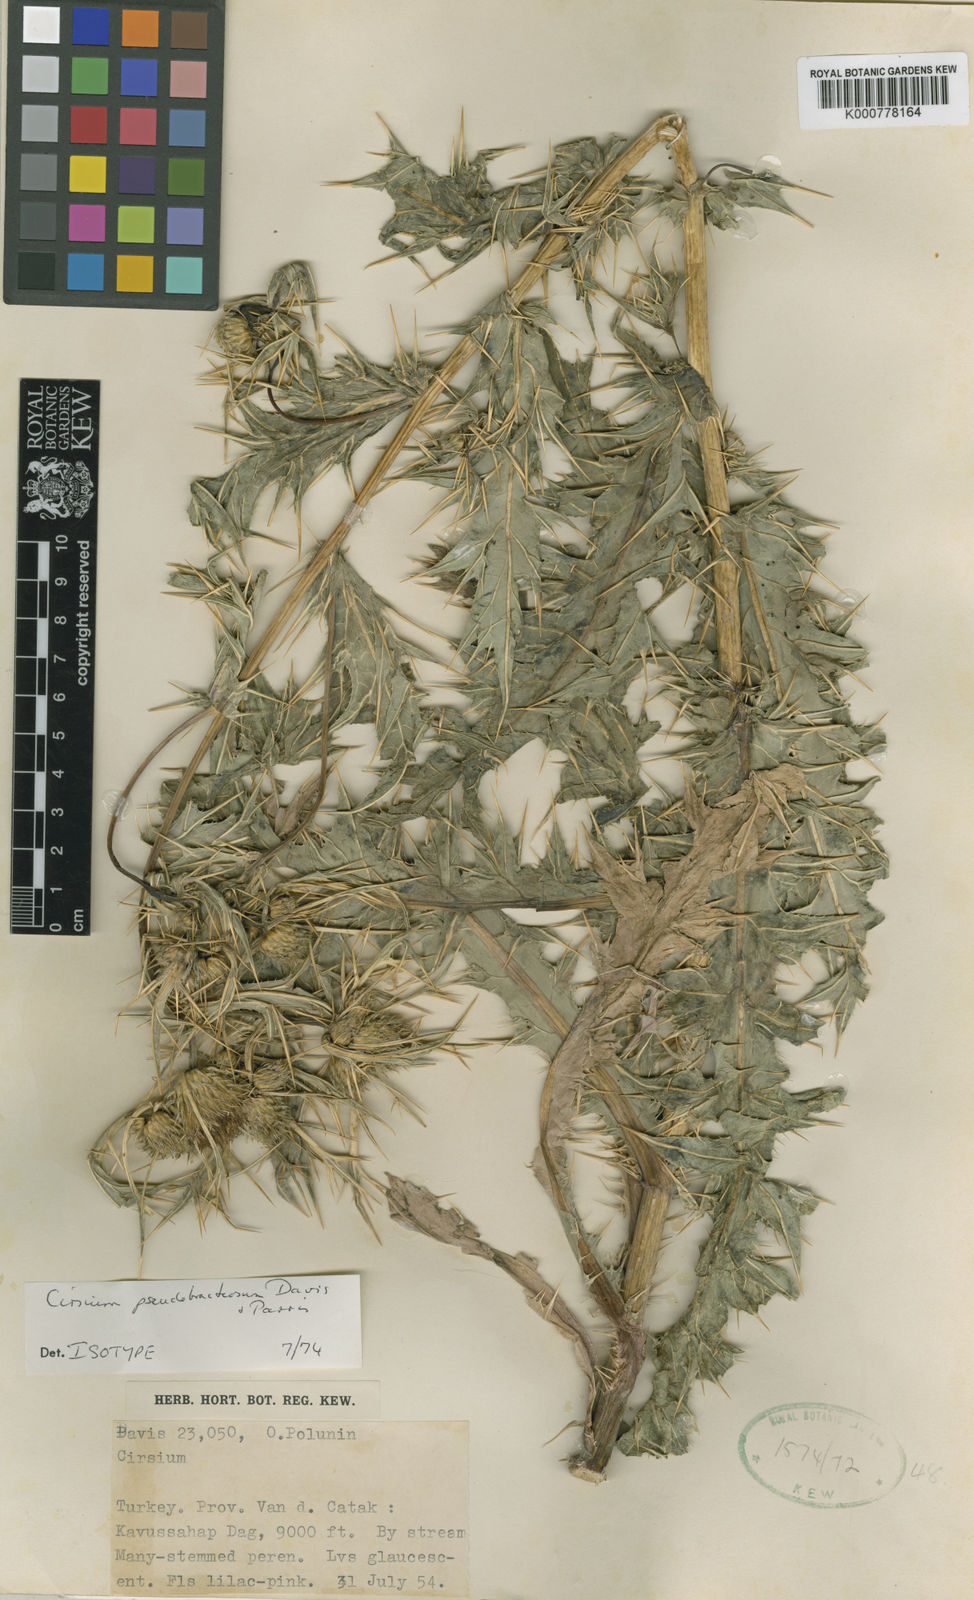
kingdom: Plantae
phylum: Tracheophyta
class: Magnoliopsida
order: Asterales
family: Asteraceae
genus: Lophiolepis
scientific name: Lophiolepis pseudobracteosa
